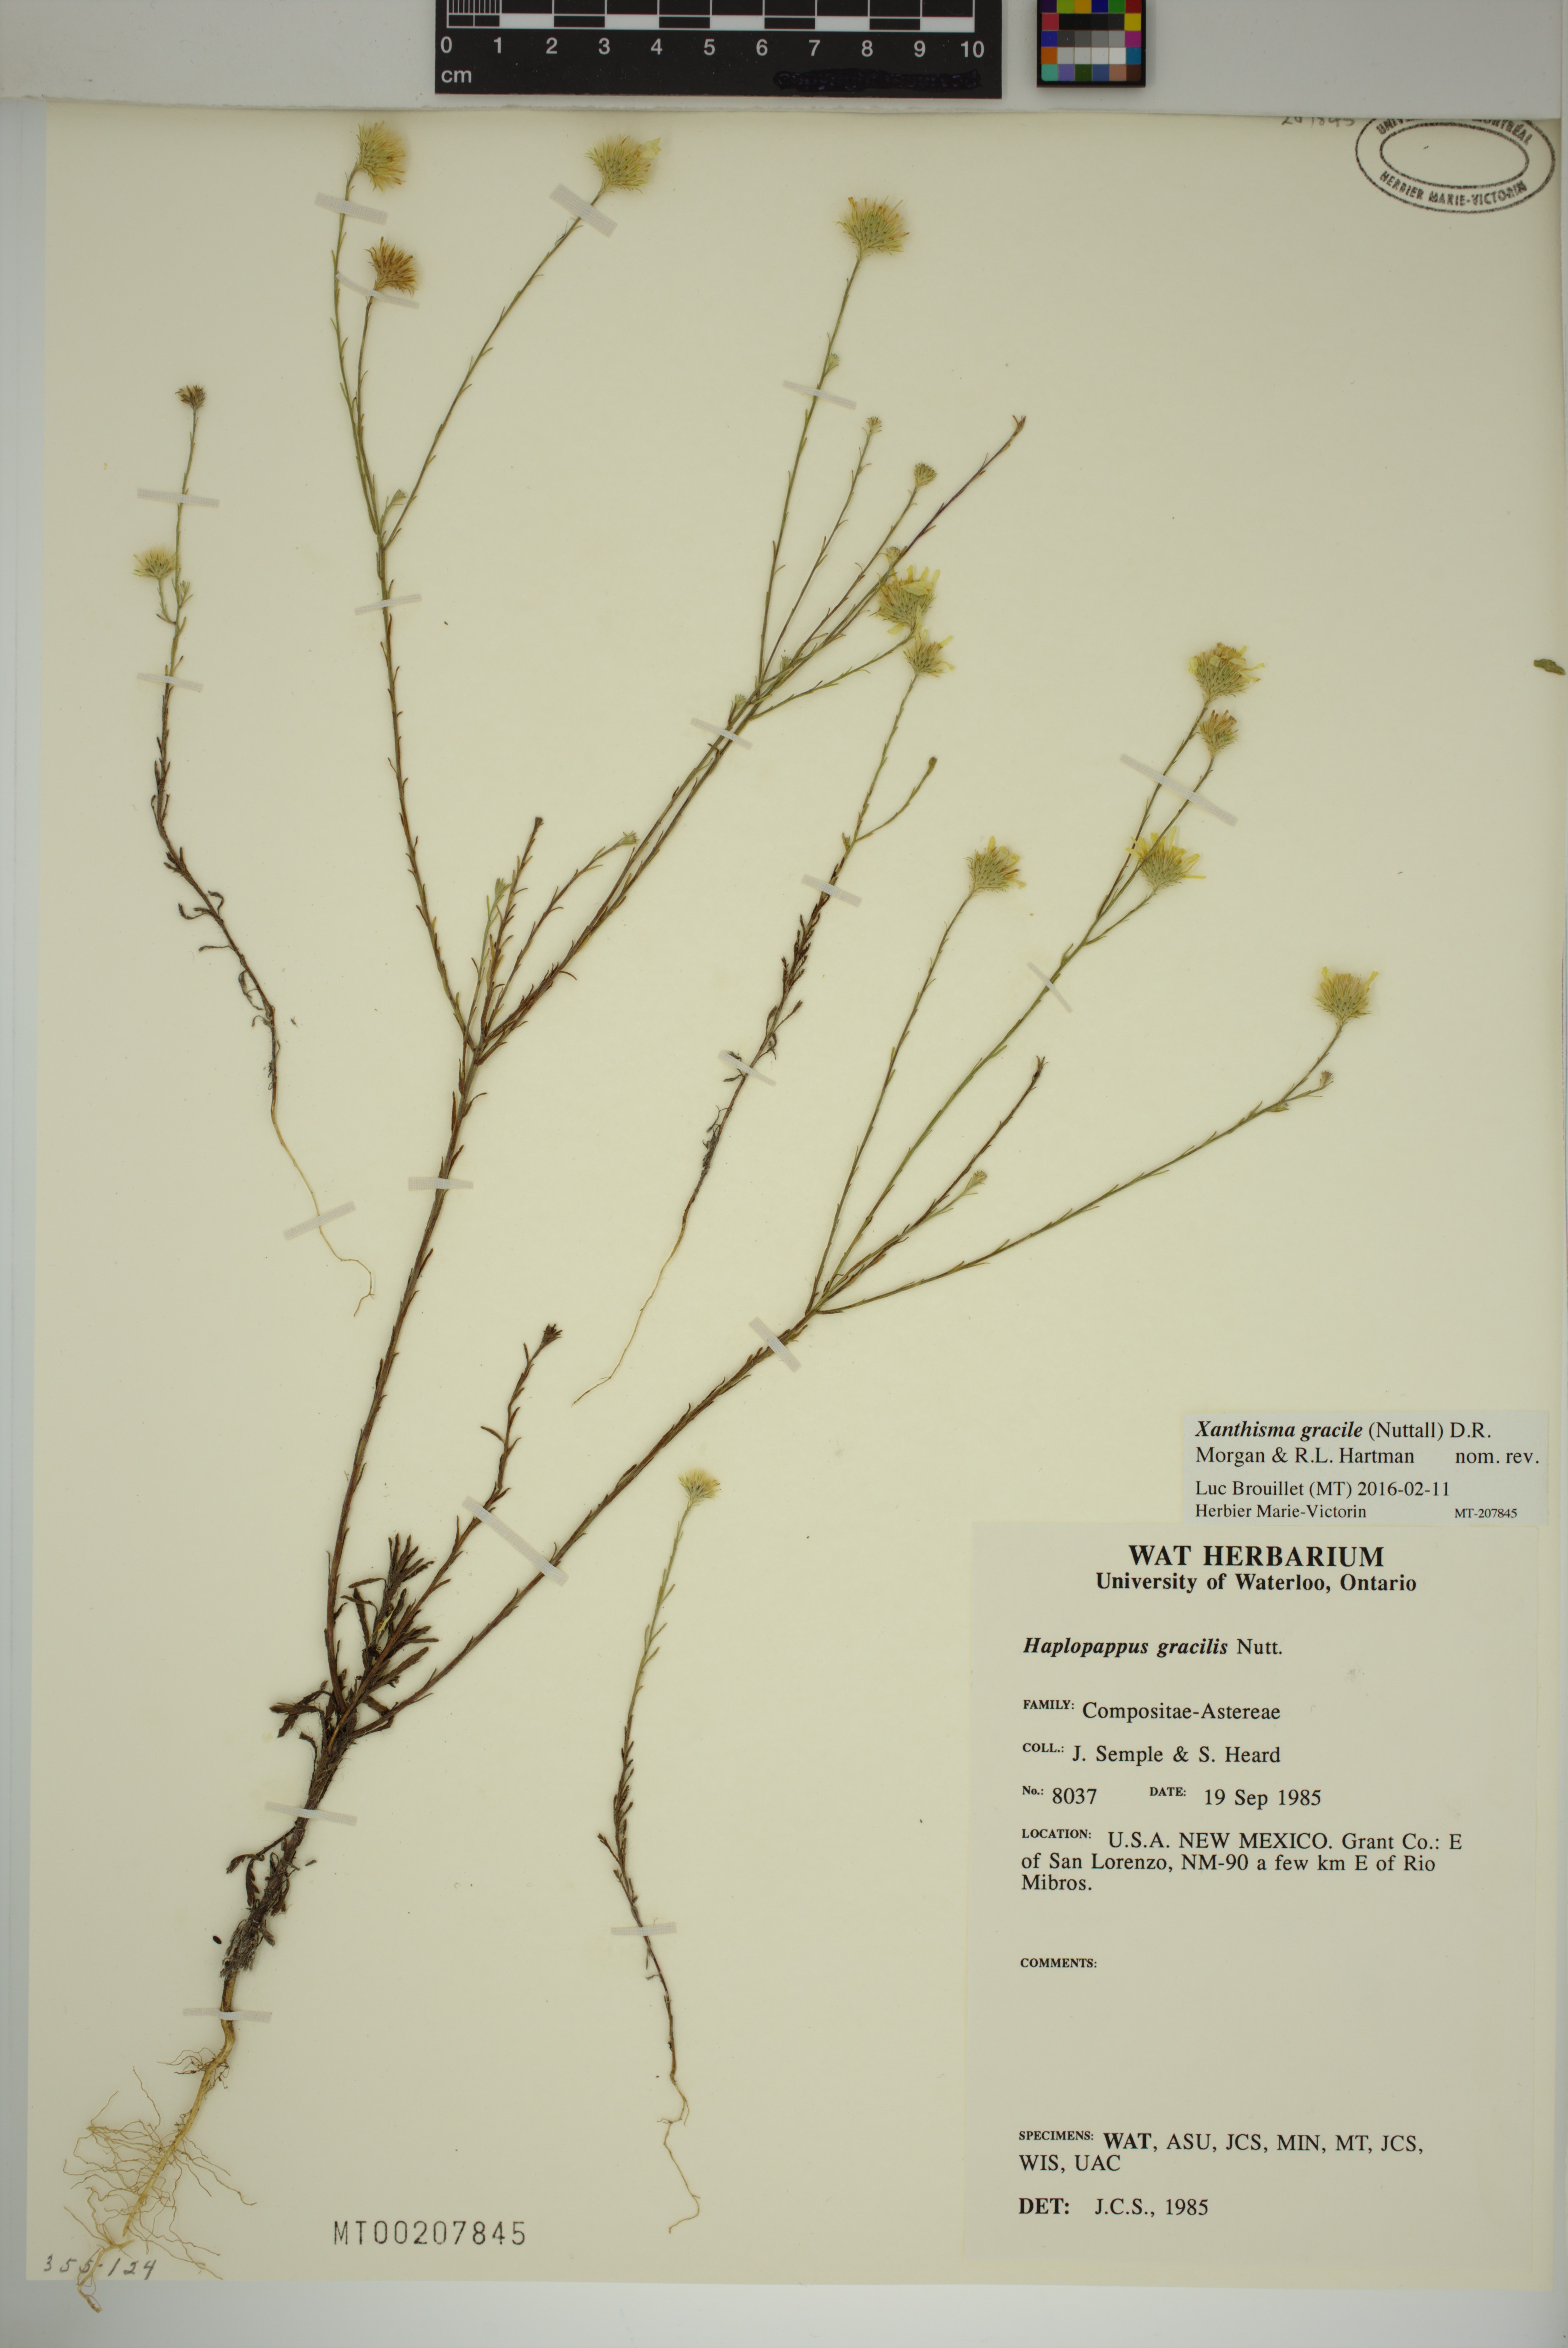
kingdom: Plantae
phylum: Tracheophyta
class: Magnoliopsida
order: Asterales
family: Asteraceae
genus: Xanthisma
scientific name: Xanthisma gracile
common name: Slender goldenweed
